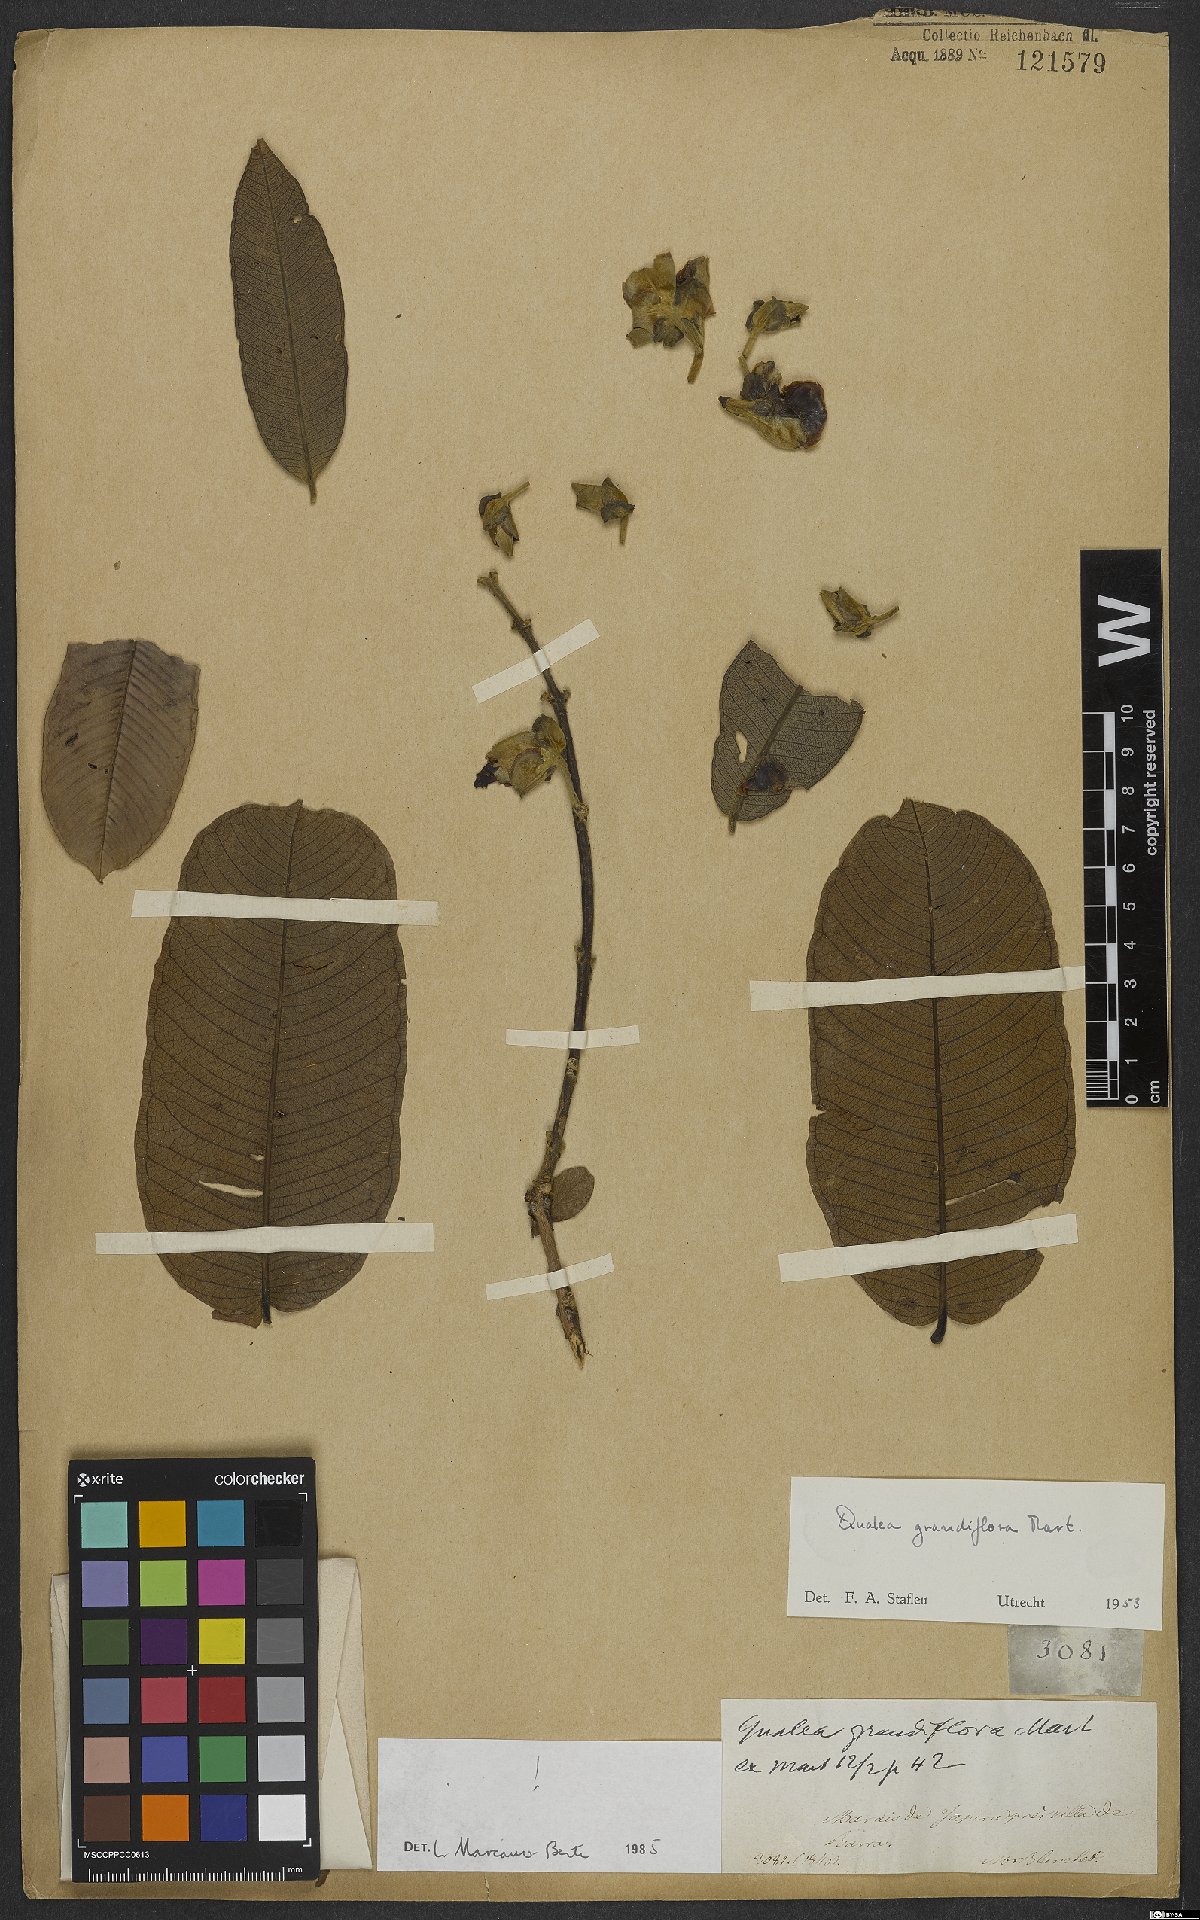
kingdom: Plantae
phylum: Tracheophyta
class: Magnoliopsida
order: Myrtales
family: Vochysiaceae
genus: Qualea
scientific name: Qualea grandiflora
